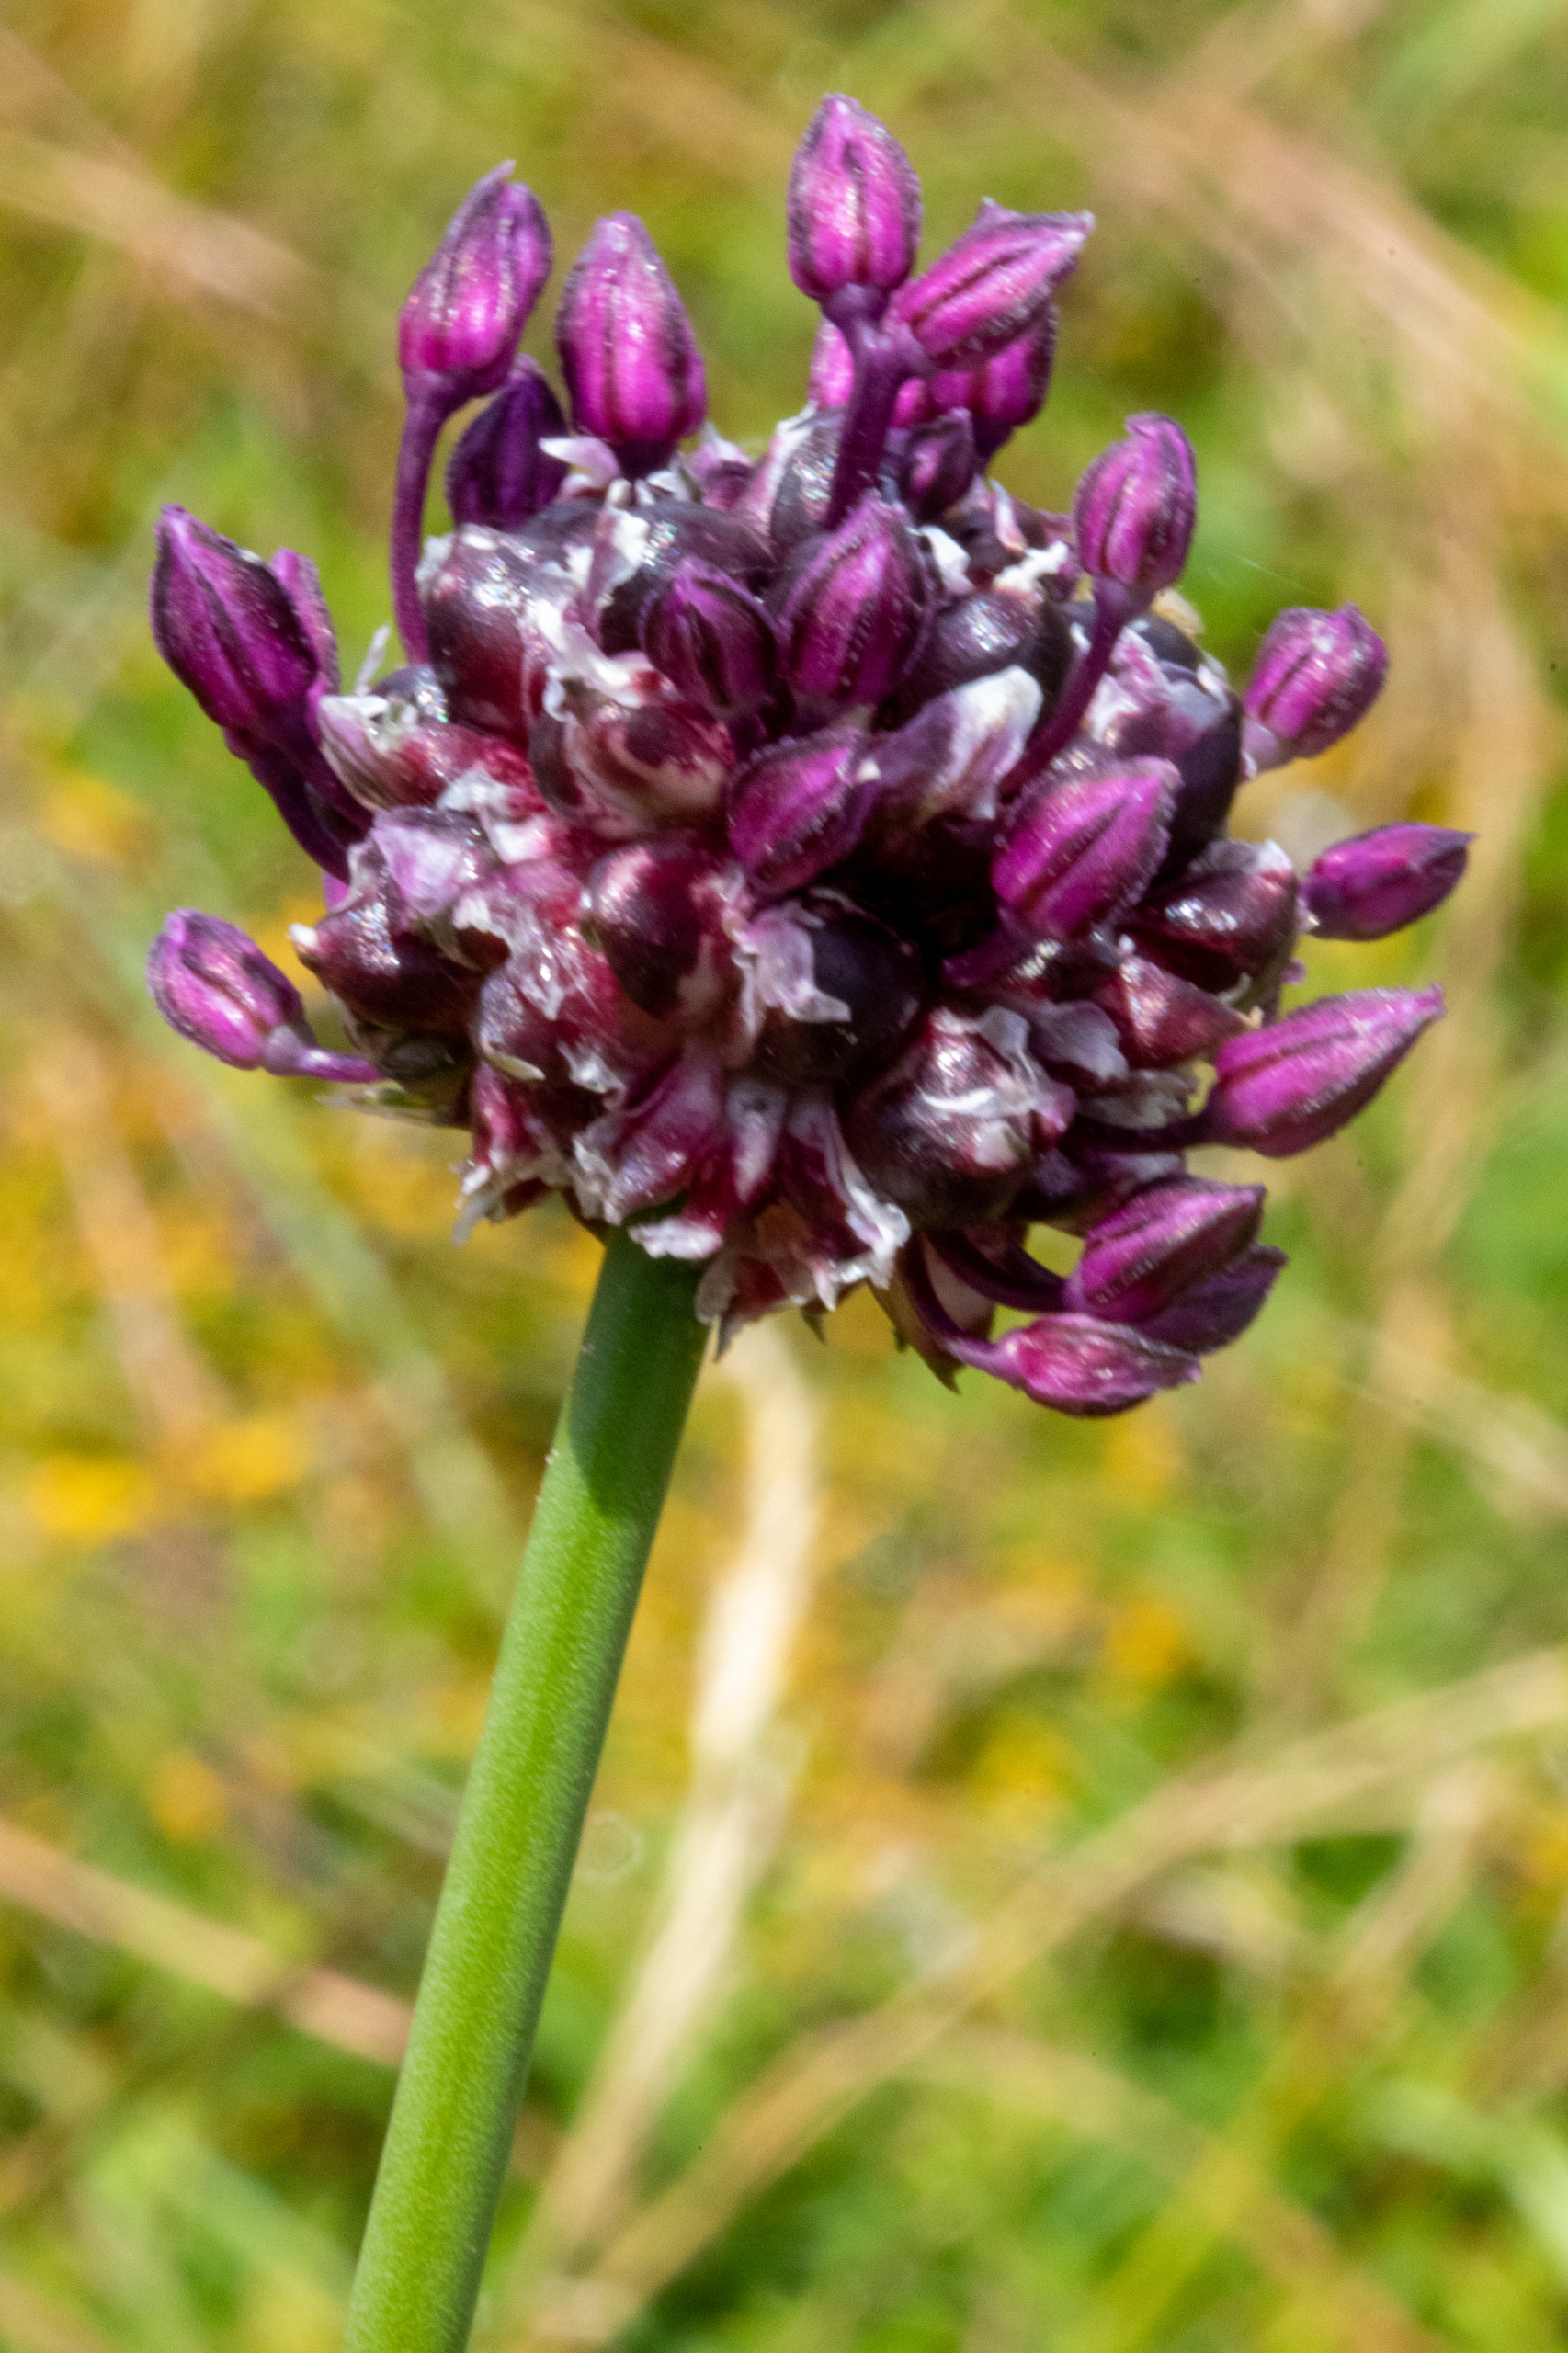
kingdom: Plantae
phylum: Tracheophyta
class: Liliopsida
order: Asparagales
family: Amaryllidaceae
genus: Allium
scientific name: Allium scorodoprasum
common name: Skov-løg
